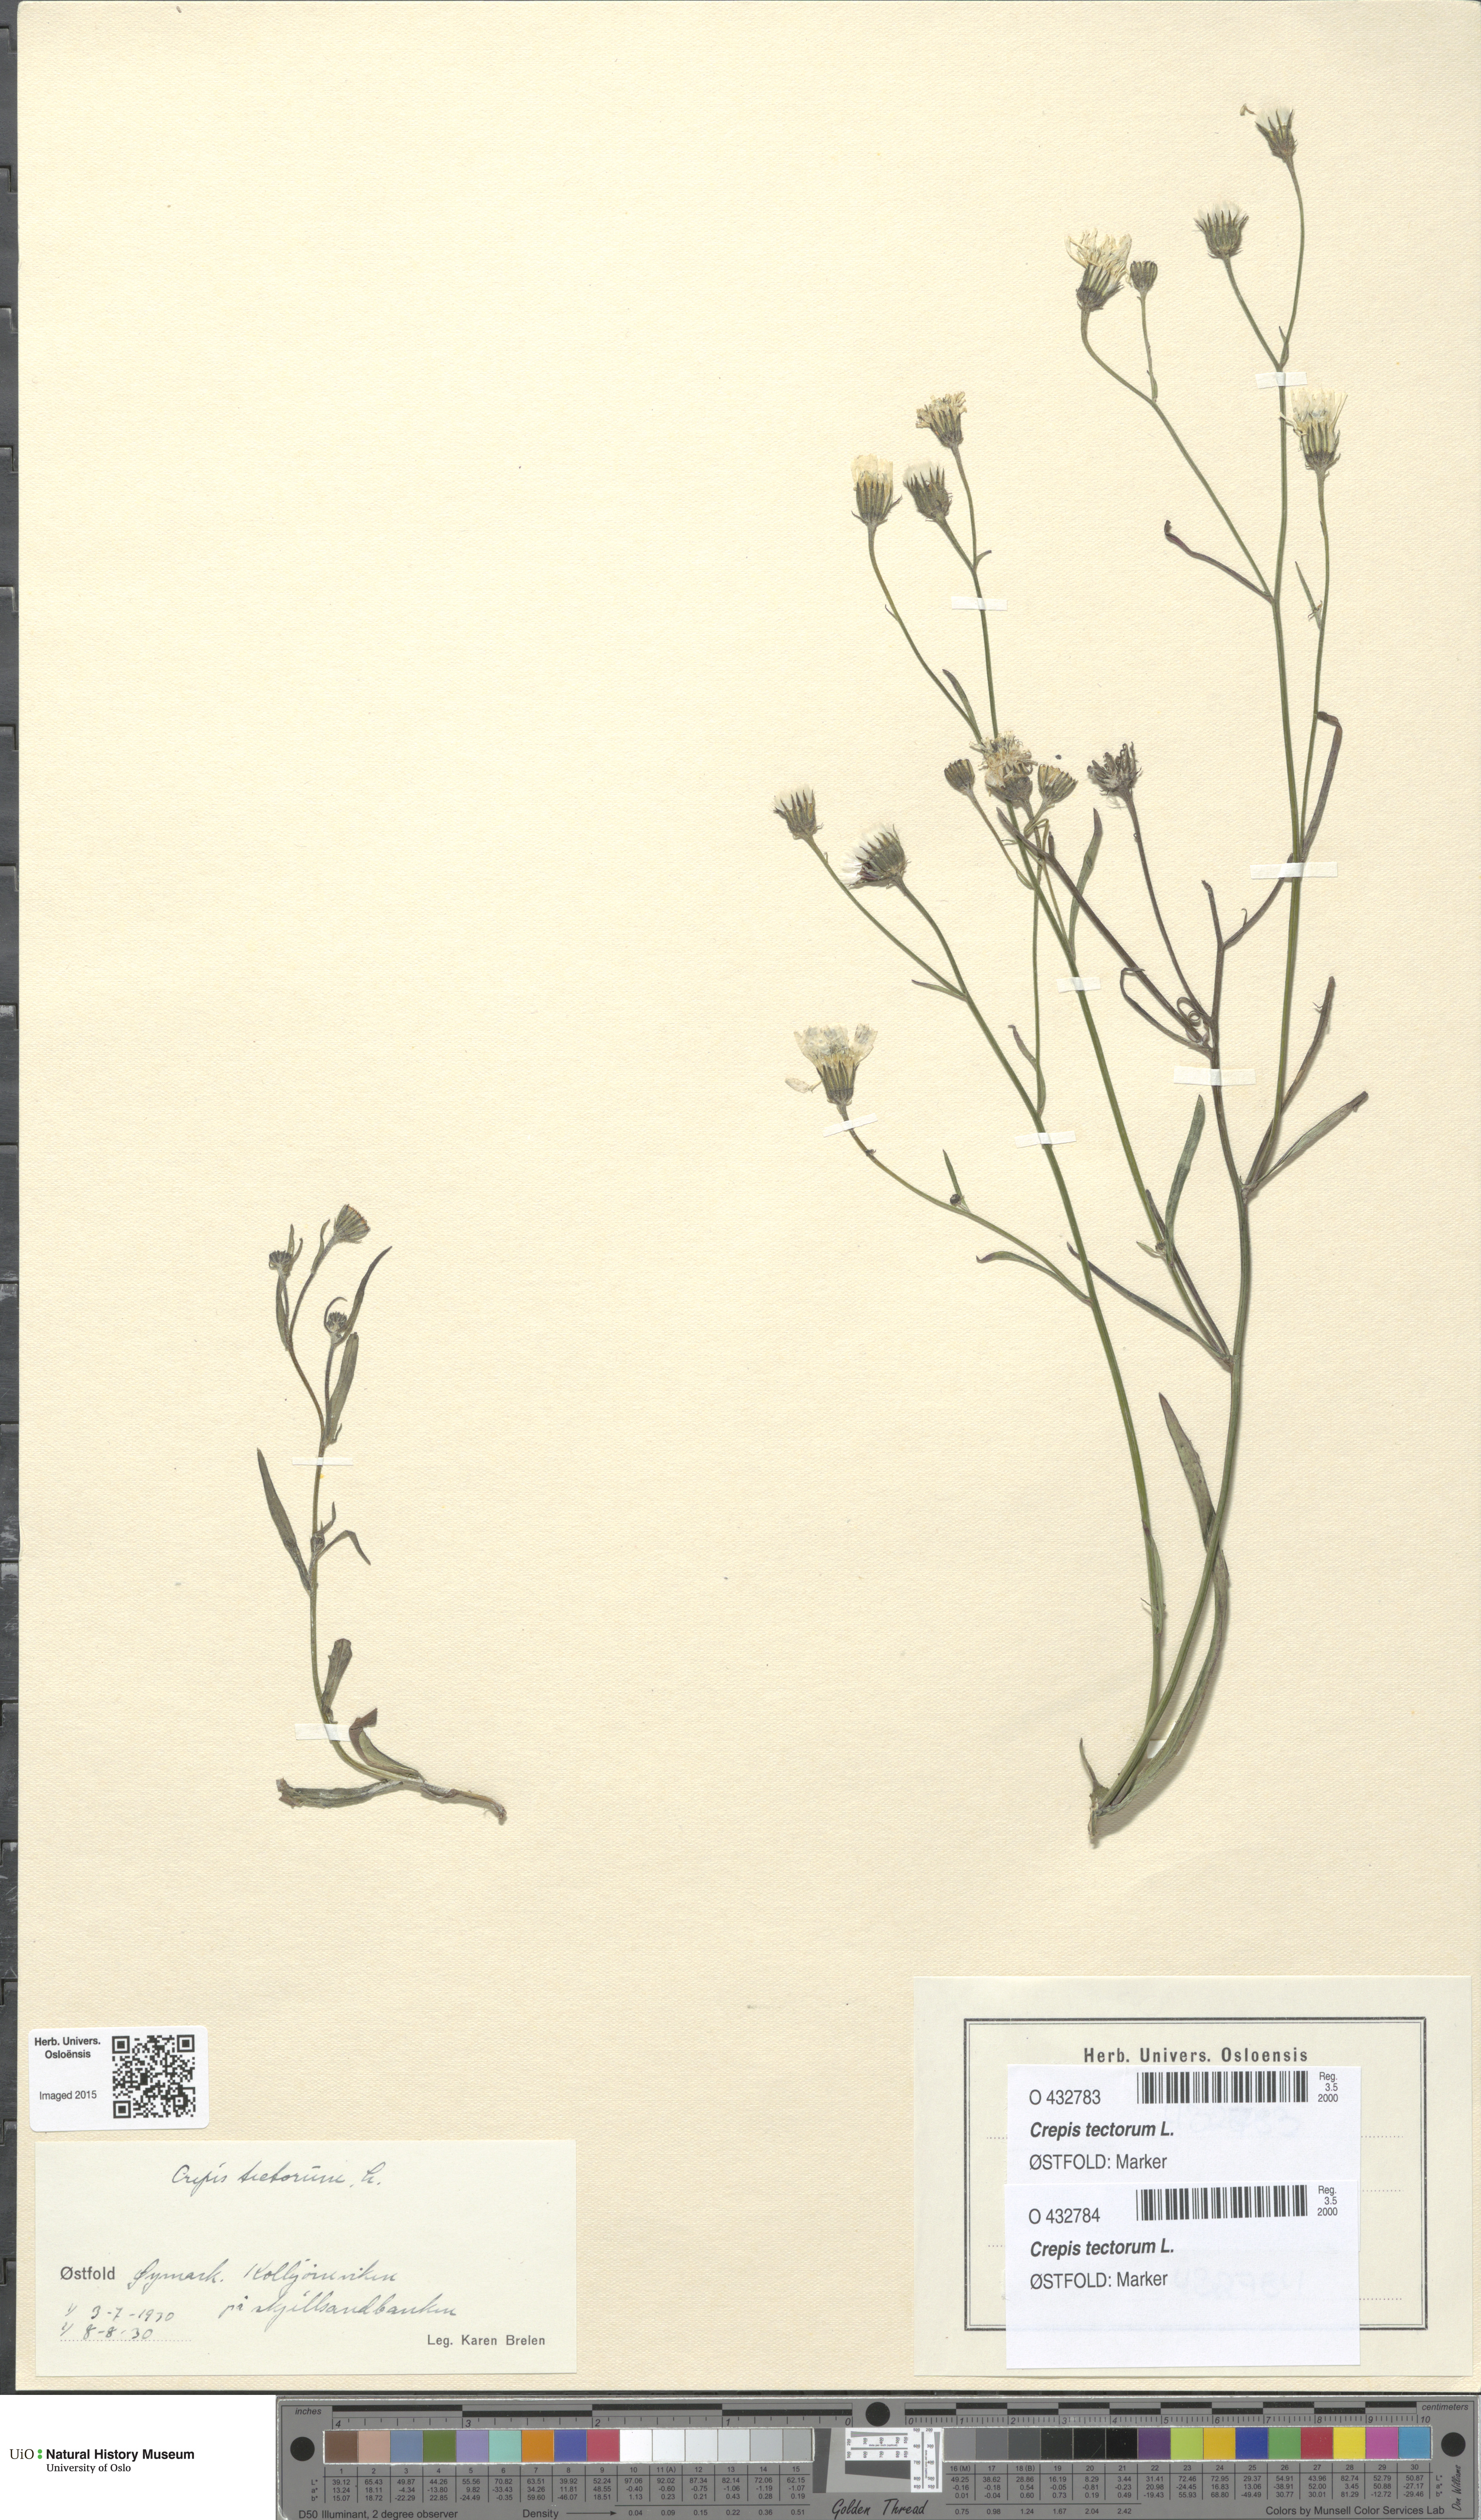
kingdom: Plantae
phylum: Tracheophyta
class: Magnoliopsida
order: Asterales
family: Asteraceae
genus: Crepis
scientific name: Crepis tectorum
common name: Narrow-leaved hawk's-beard
